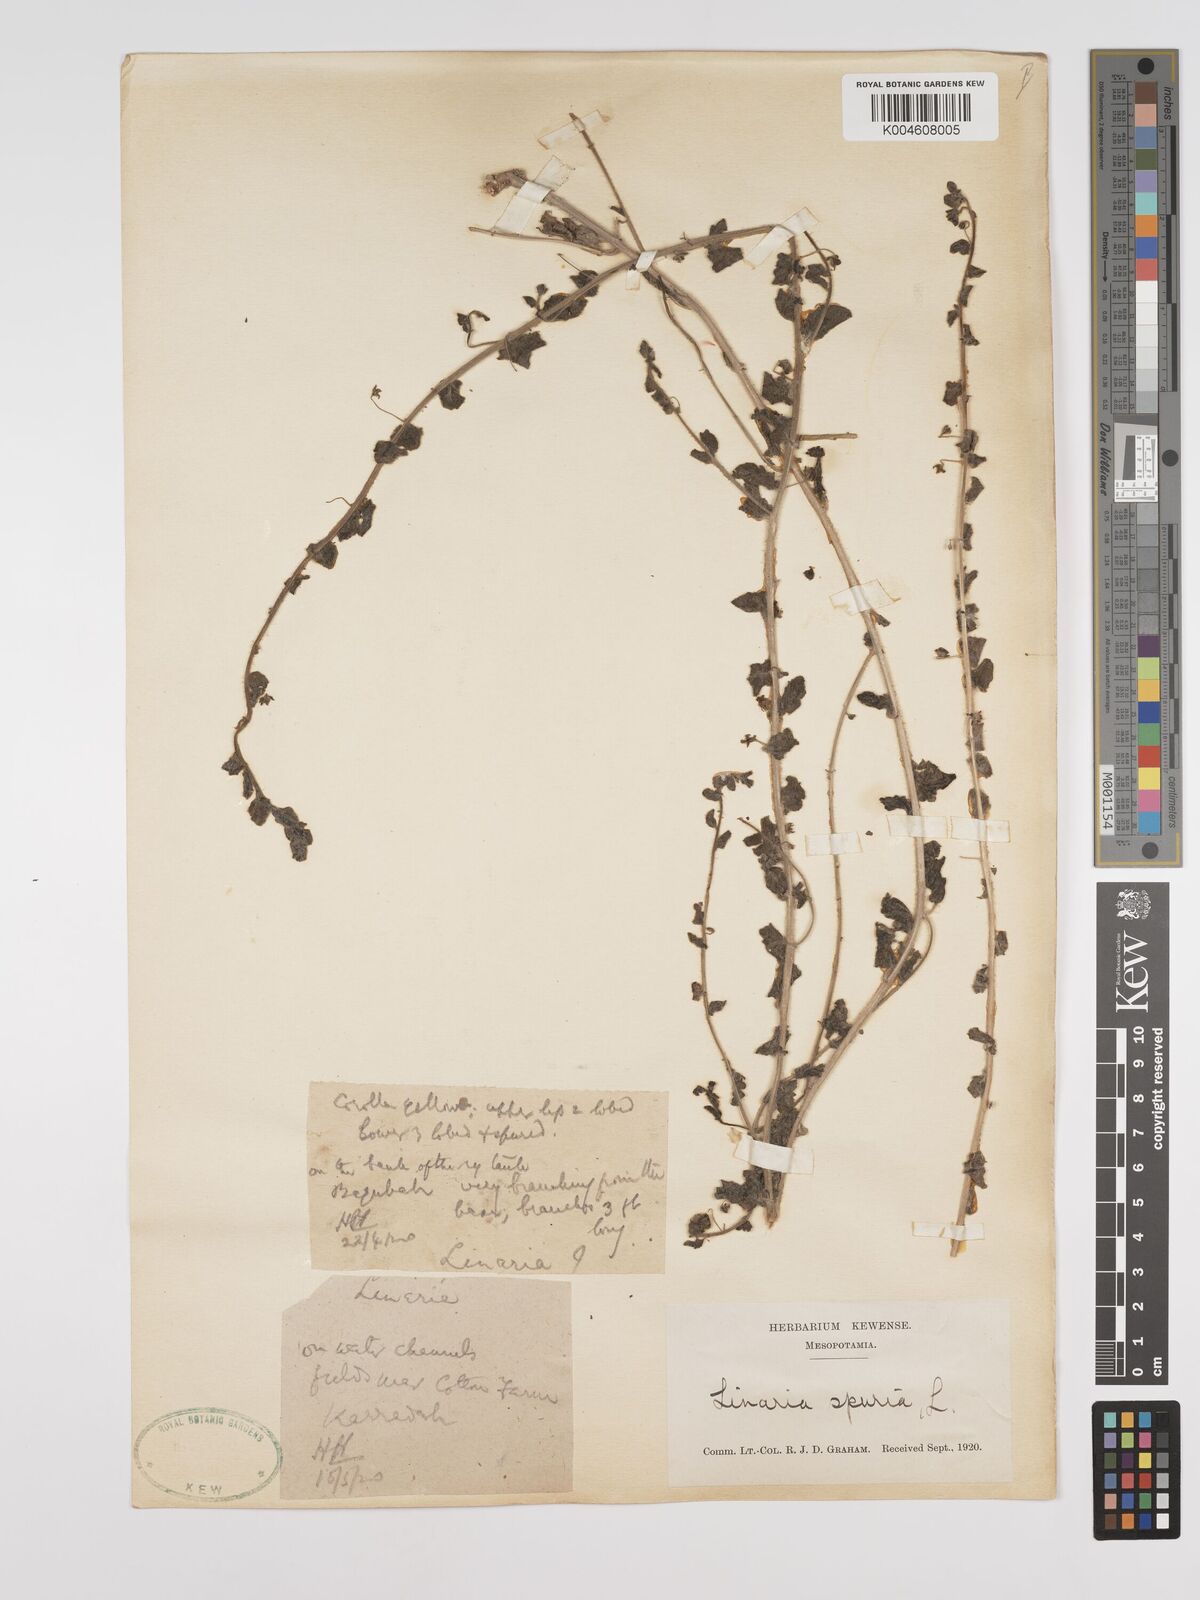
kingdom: Plantae
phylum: Tracheophyta
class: Magnoliopsida
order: Lamiales
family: Plantaginaceae
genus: Kickxia
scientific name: Kickxia spuria
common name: Round-leaved fluellen
